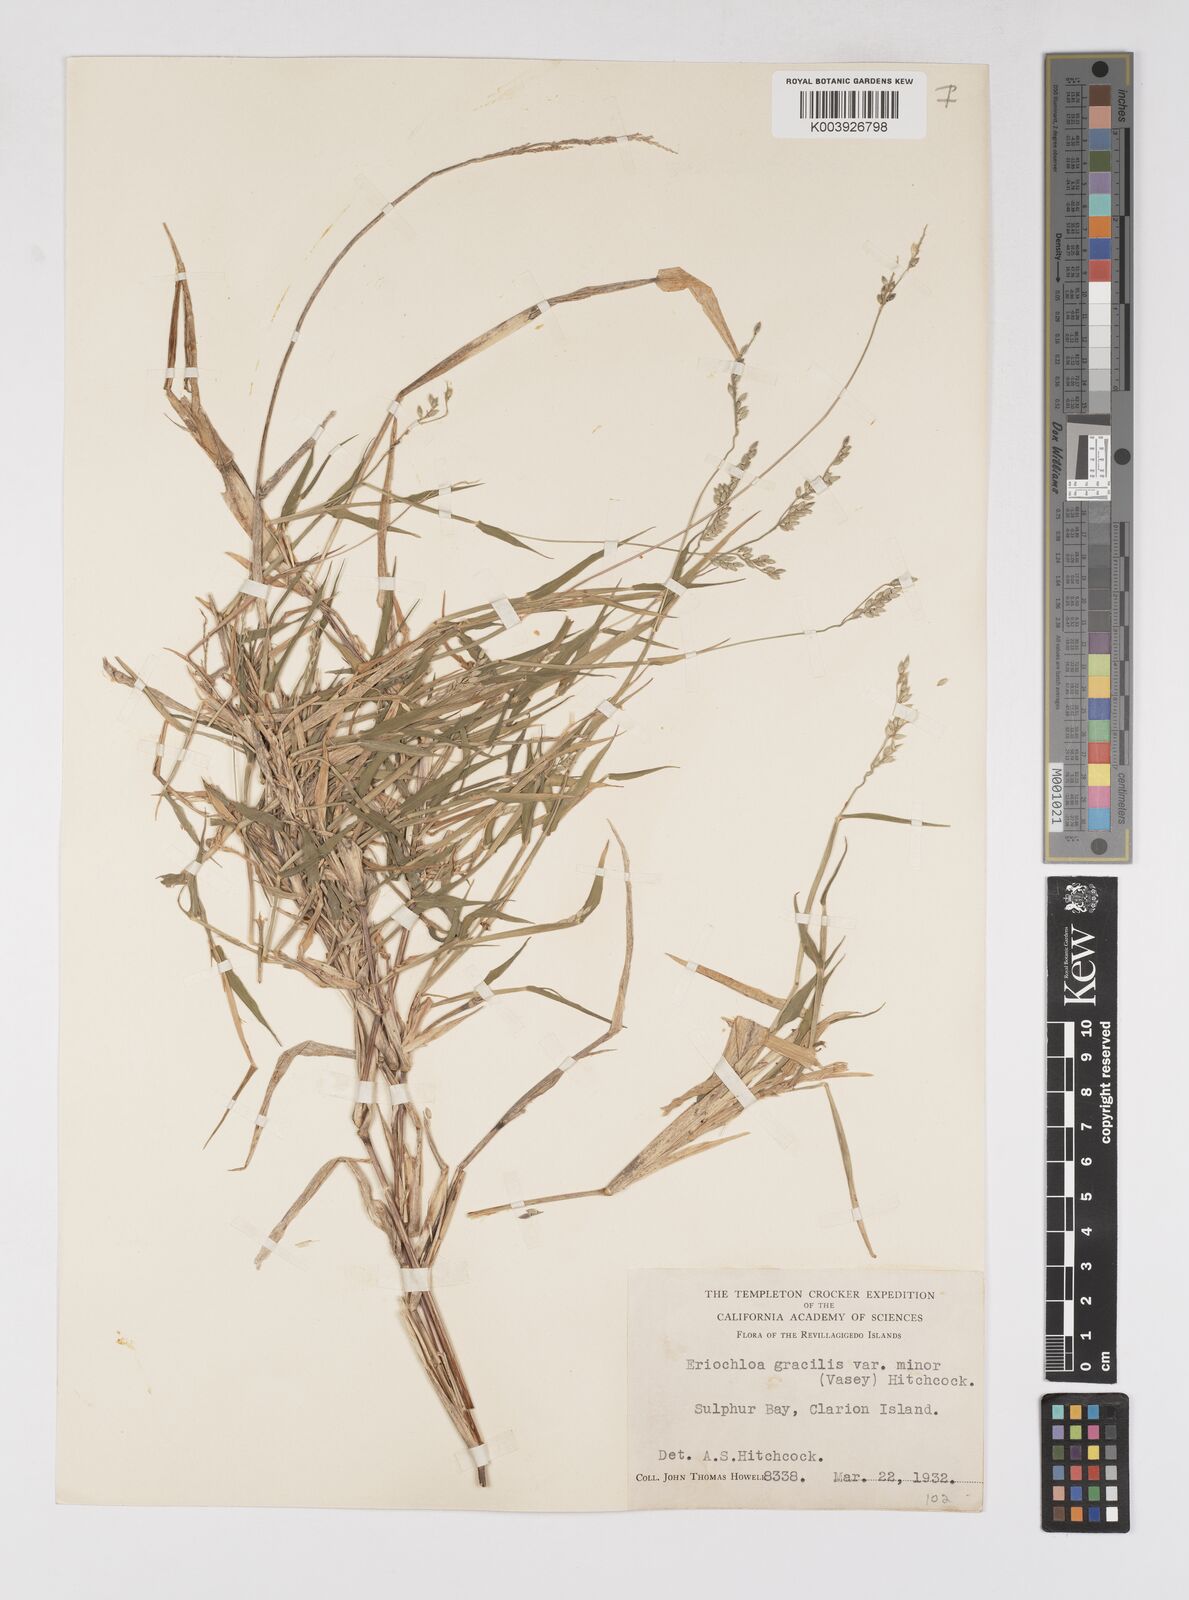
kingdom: Plantae
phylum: Tracheophyta
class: Liliopsida
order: Poales
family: Poaceae
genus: Eriochloa
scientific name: Eriochloa acuminata
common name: Southwestern cup grass
